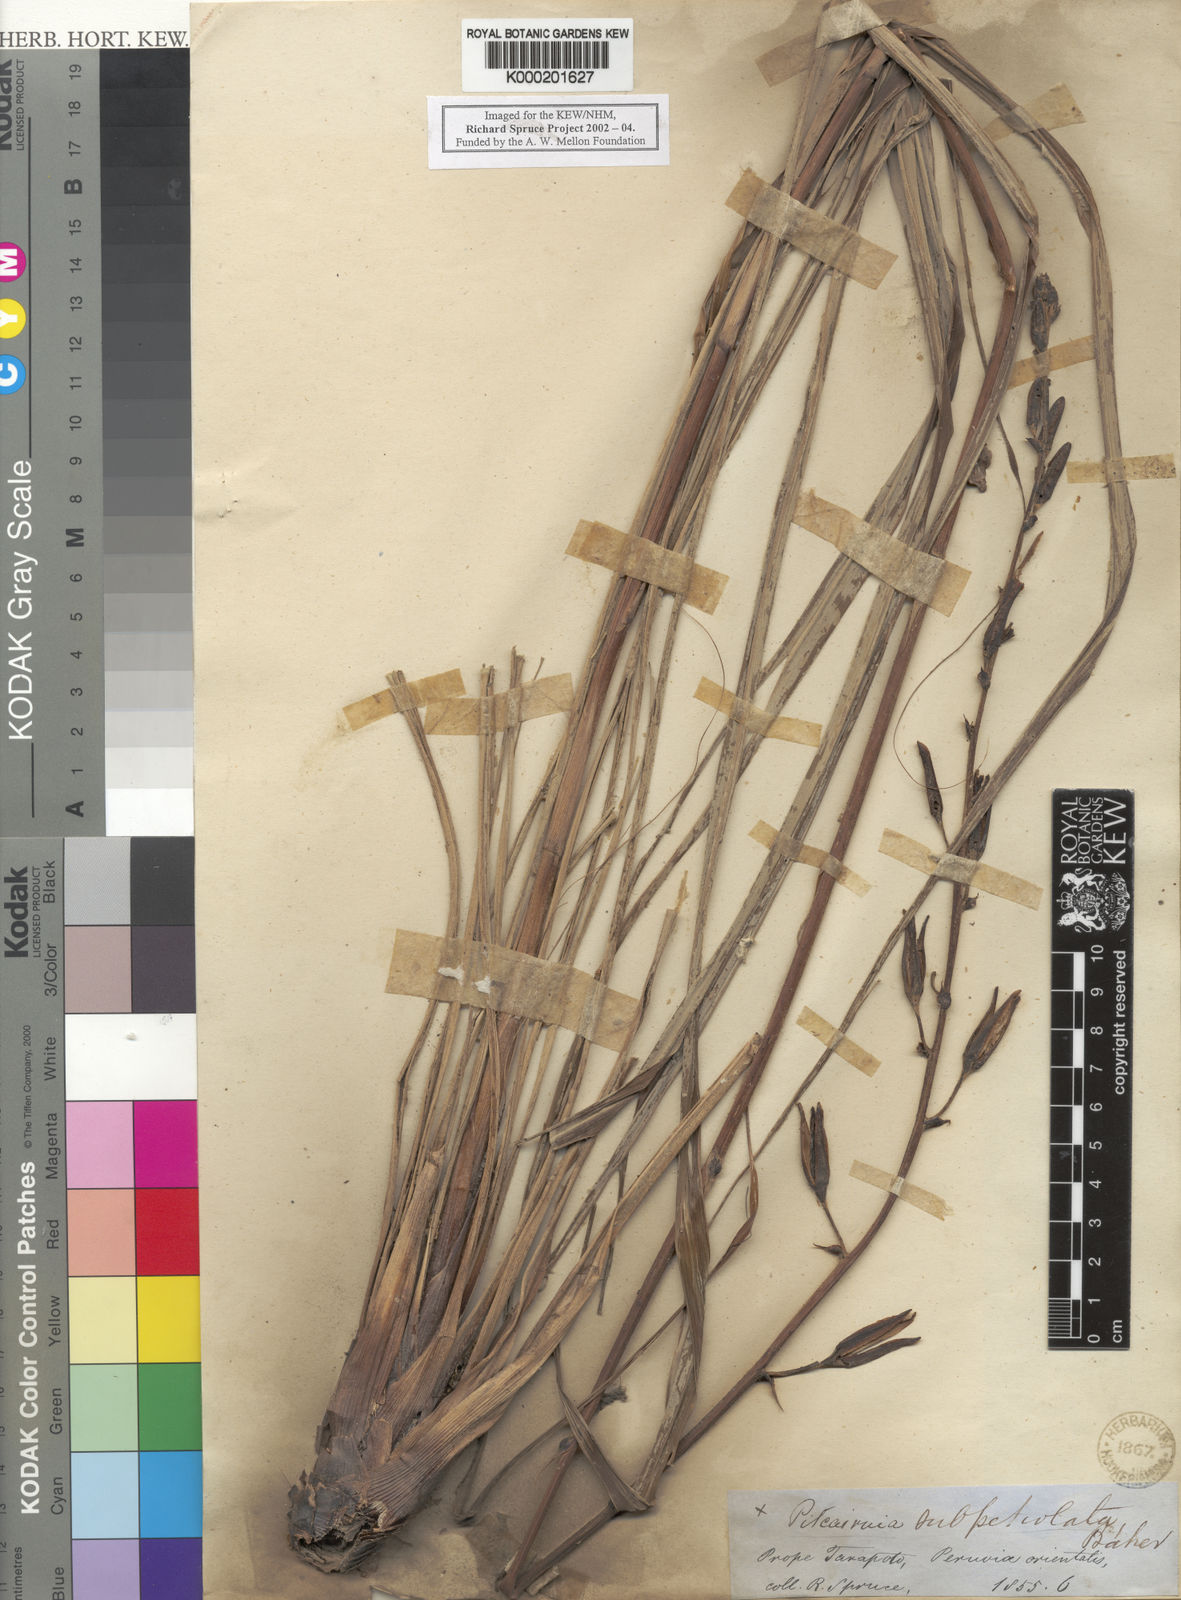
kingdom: Plantae
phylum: Tracheophyta
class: Liliopsida
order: Poales
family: Bromeliaceae
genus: Pitcairnia
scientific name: Pitcairnia lanuginosa
